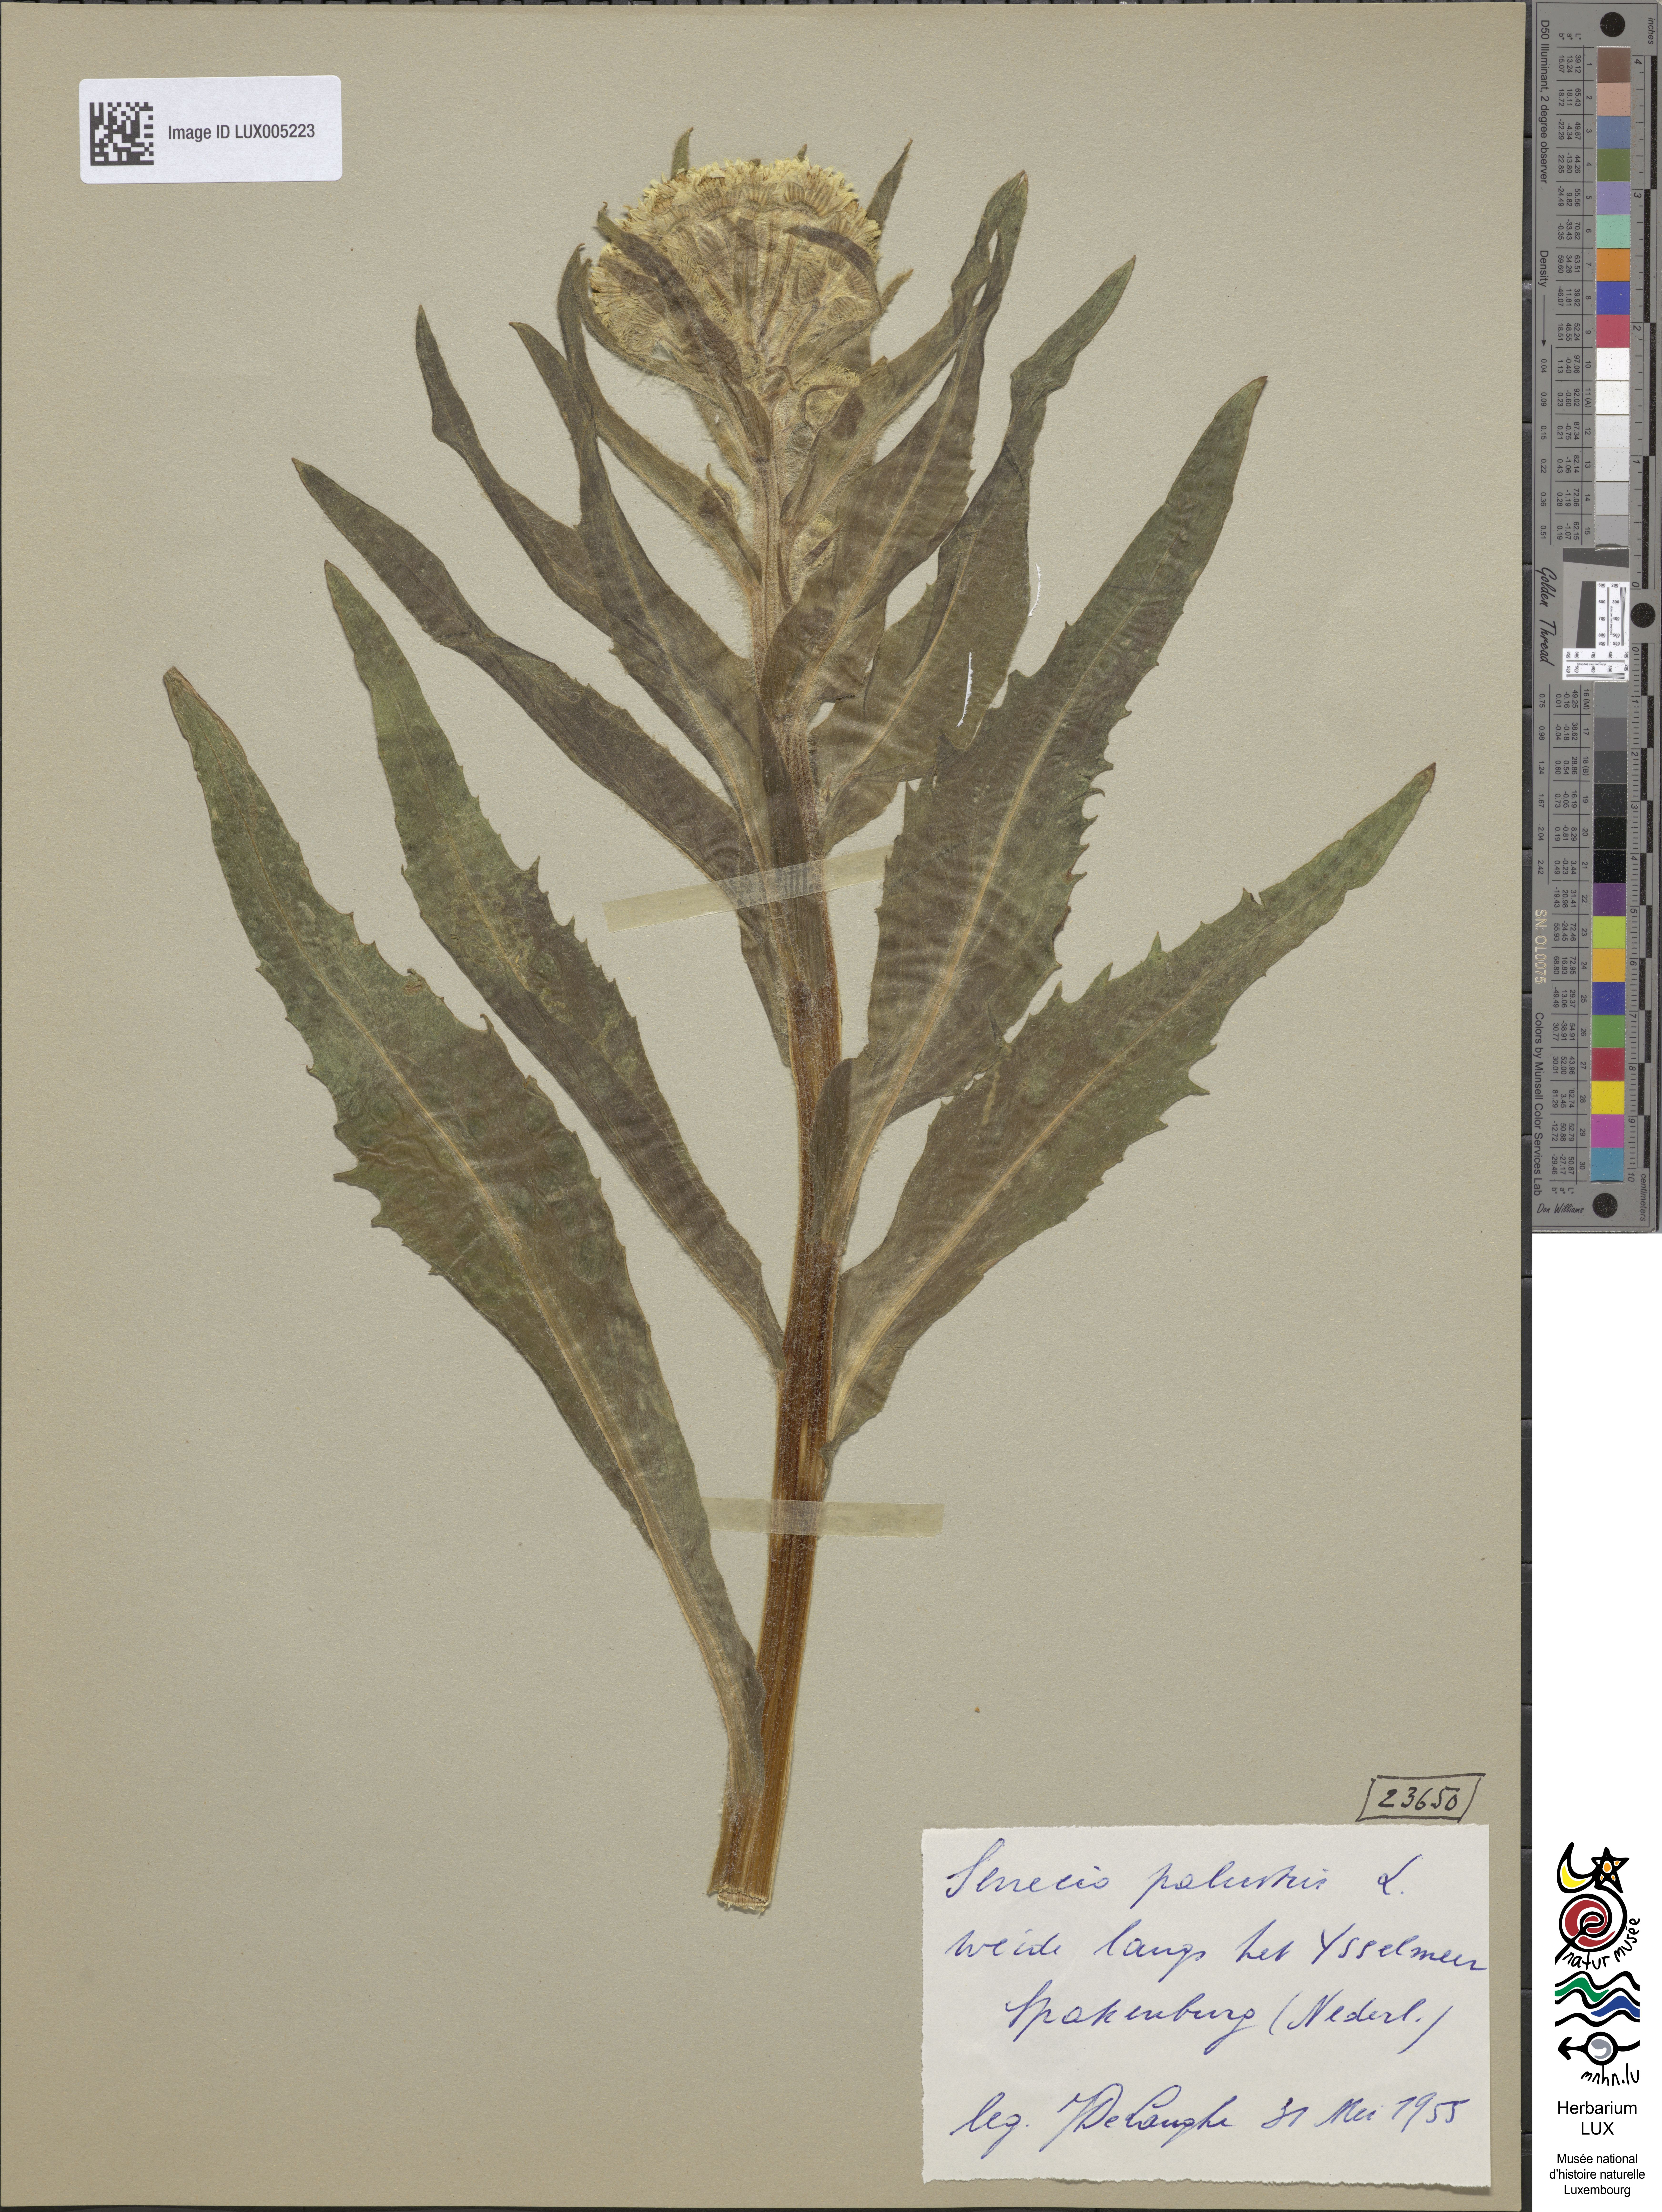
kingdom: Plantae
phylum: Tracheophyta
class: Magnoliopsida
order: Asterales
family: Asteraceae
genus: Tephroseris
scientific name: Tephroseris palustris
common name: Marsh fleawort
